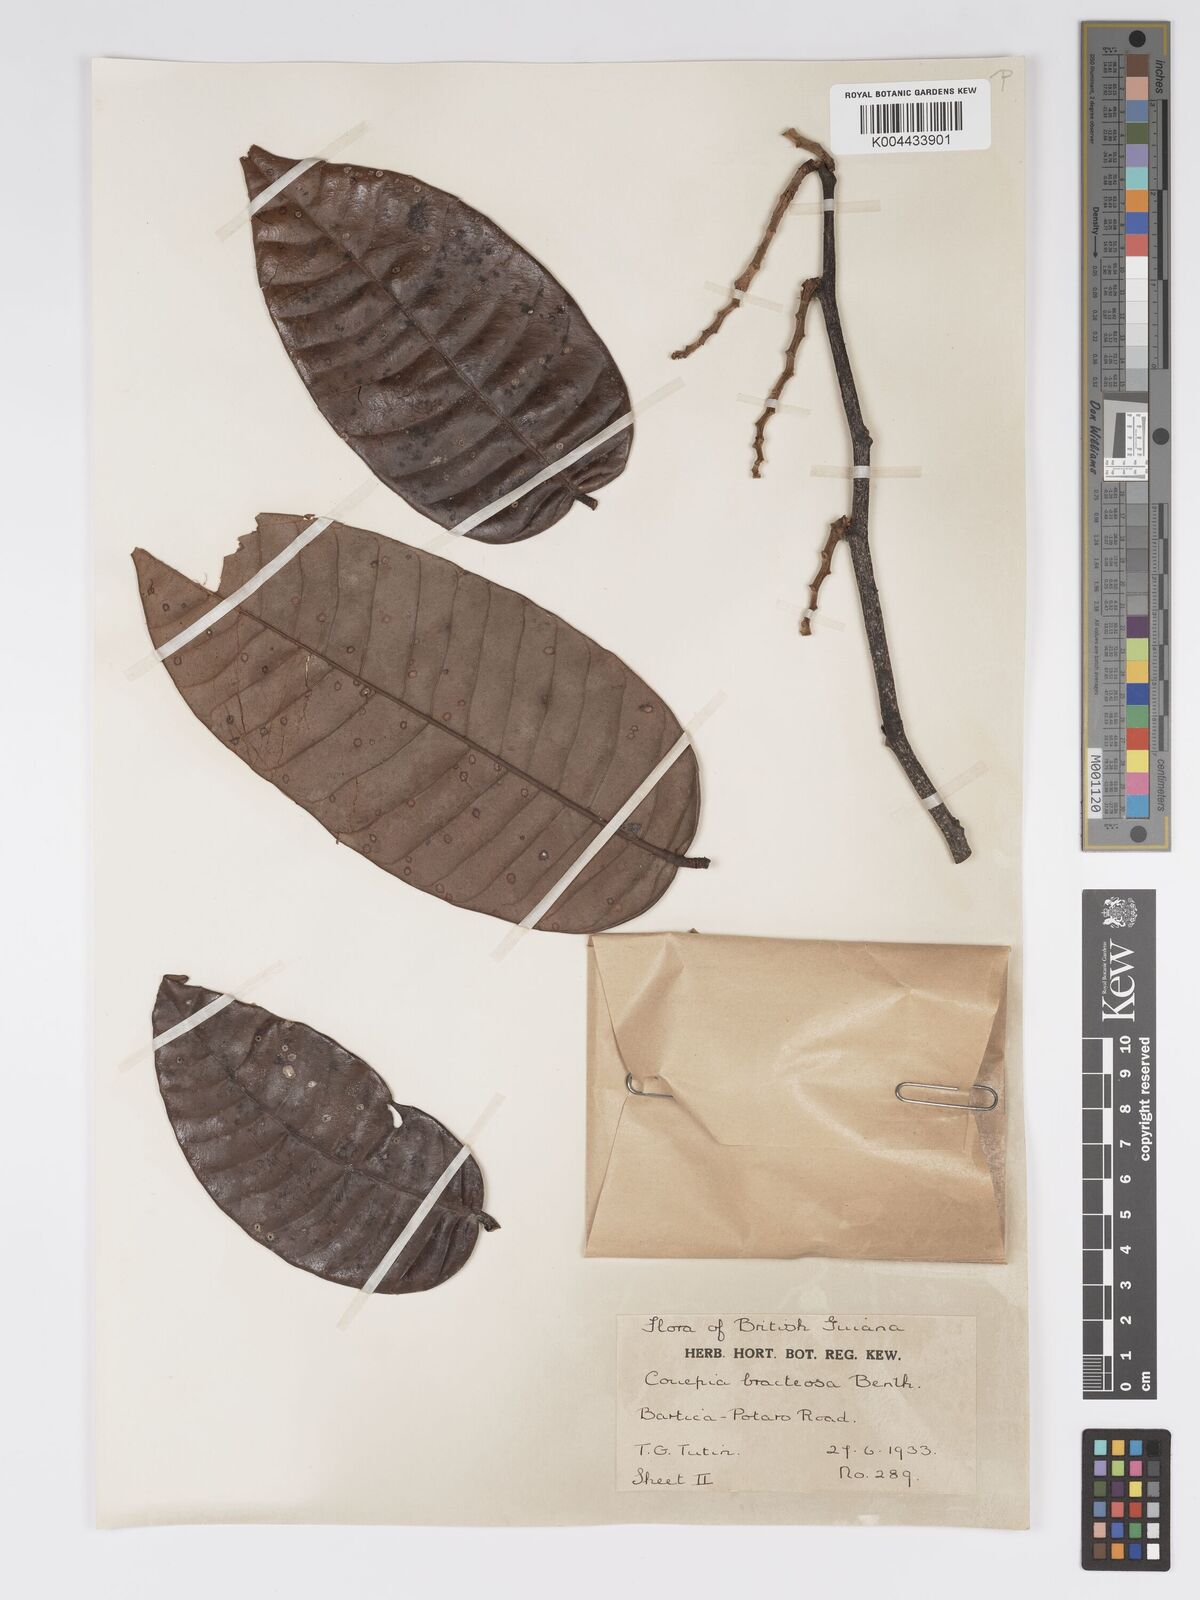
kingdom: Plantae
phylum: Tracheophyta
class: Magnoliopsida
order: Malpighiales
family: Chrysobalanaceae
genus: Couepia
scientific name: Couepia bracteosa
